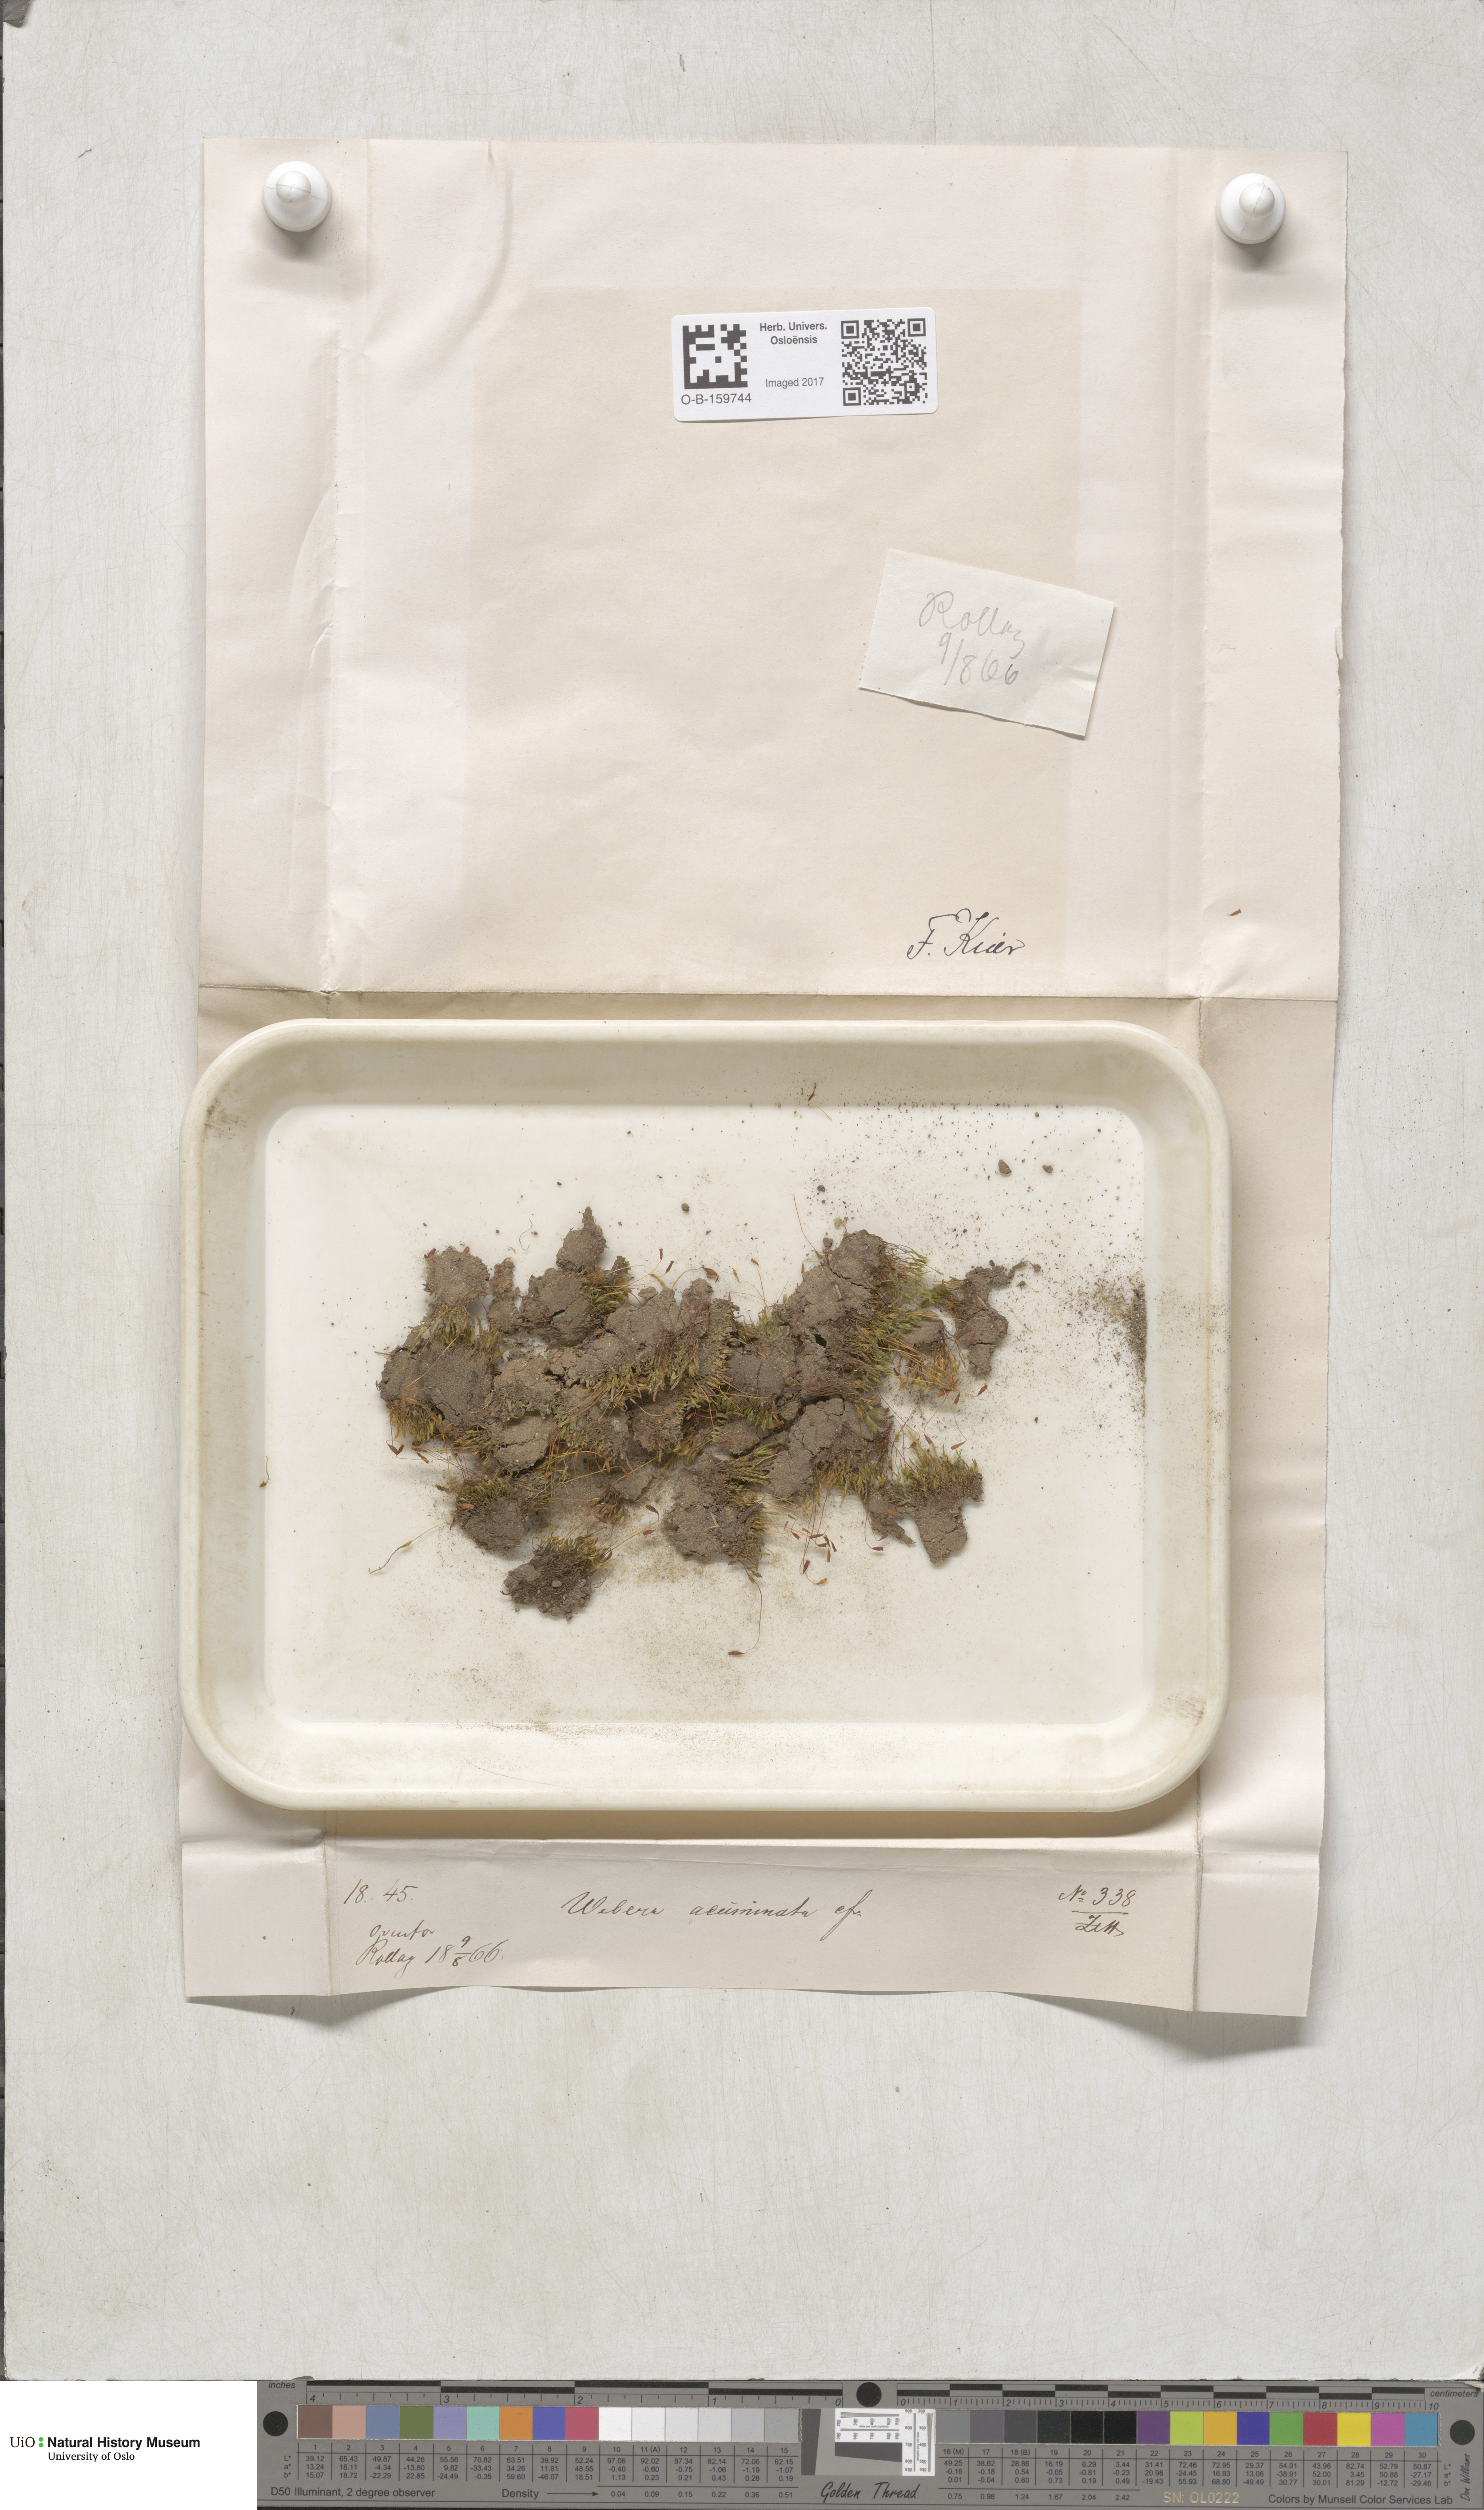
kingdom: Plantae
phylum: Bryophyta
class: Bryopsida
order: Bryales
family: Mniaceae
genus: Pohlia
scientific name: Pohlia elongata
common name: Long-fruited thread-moss
